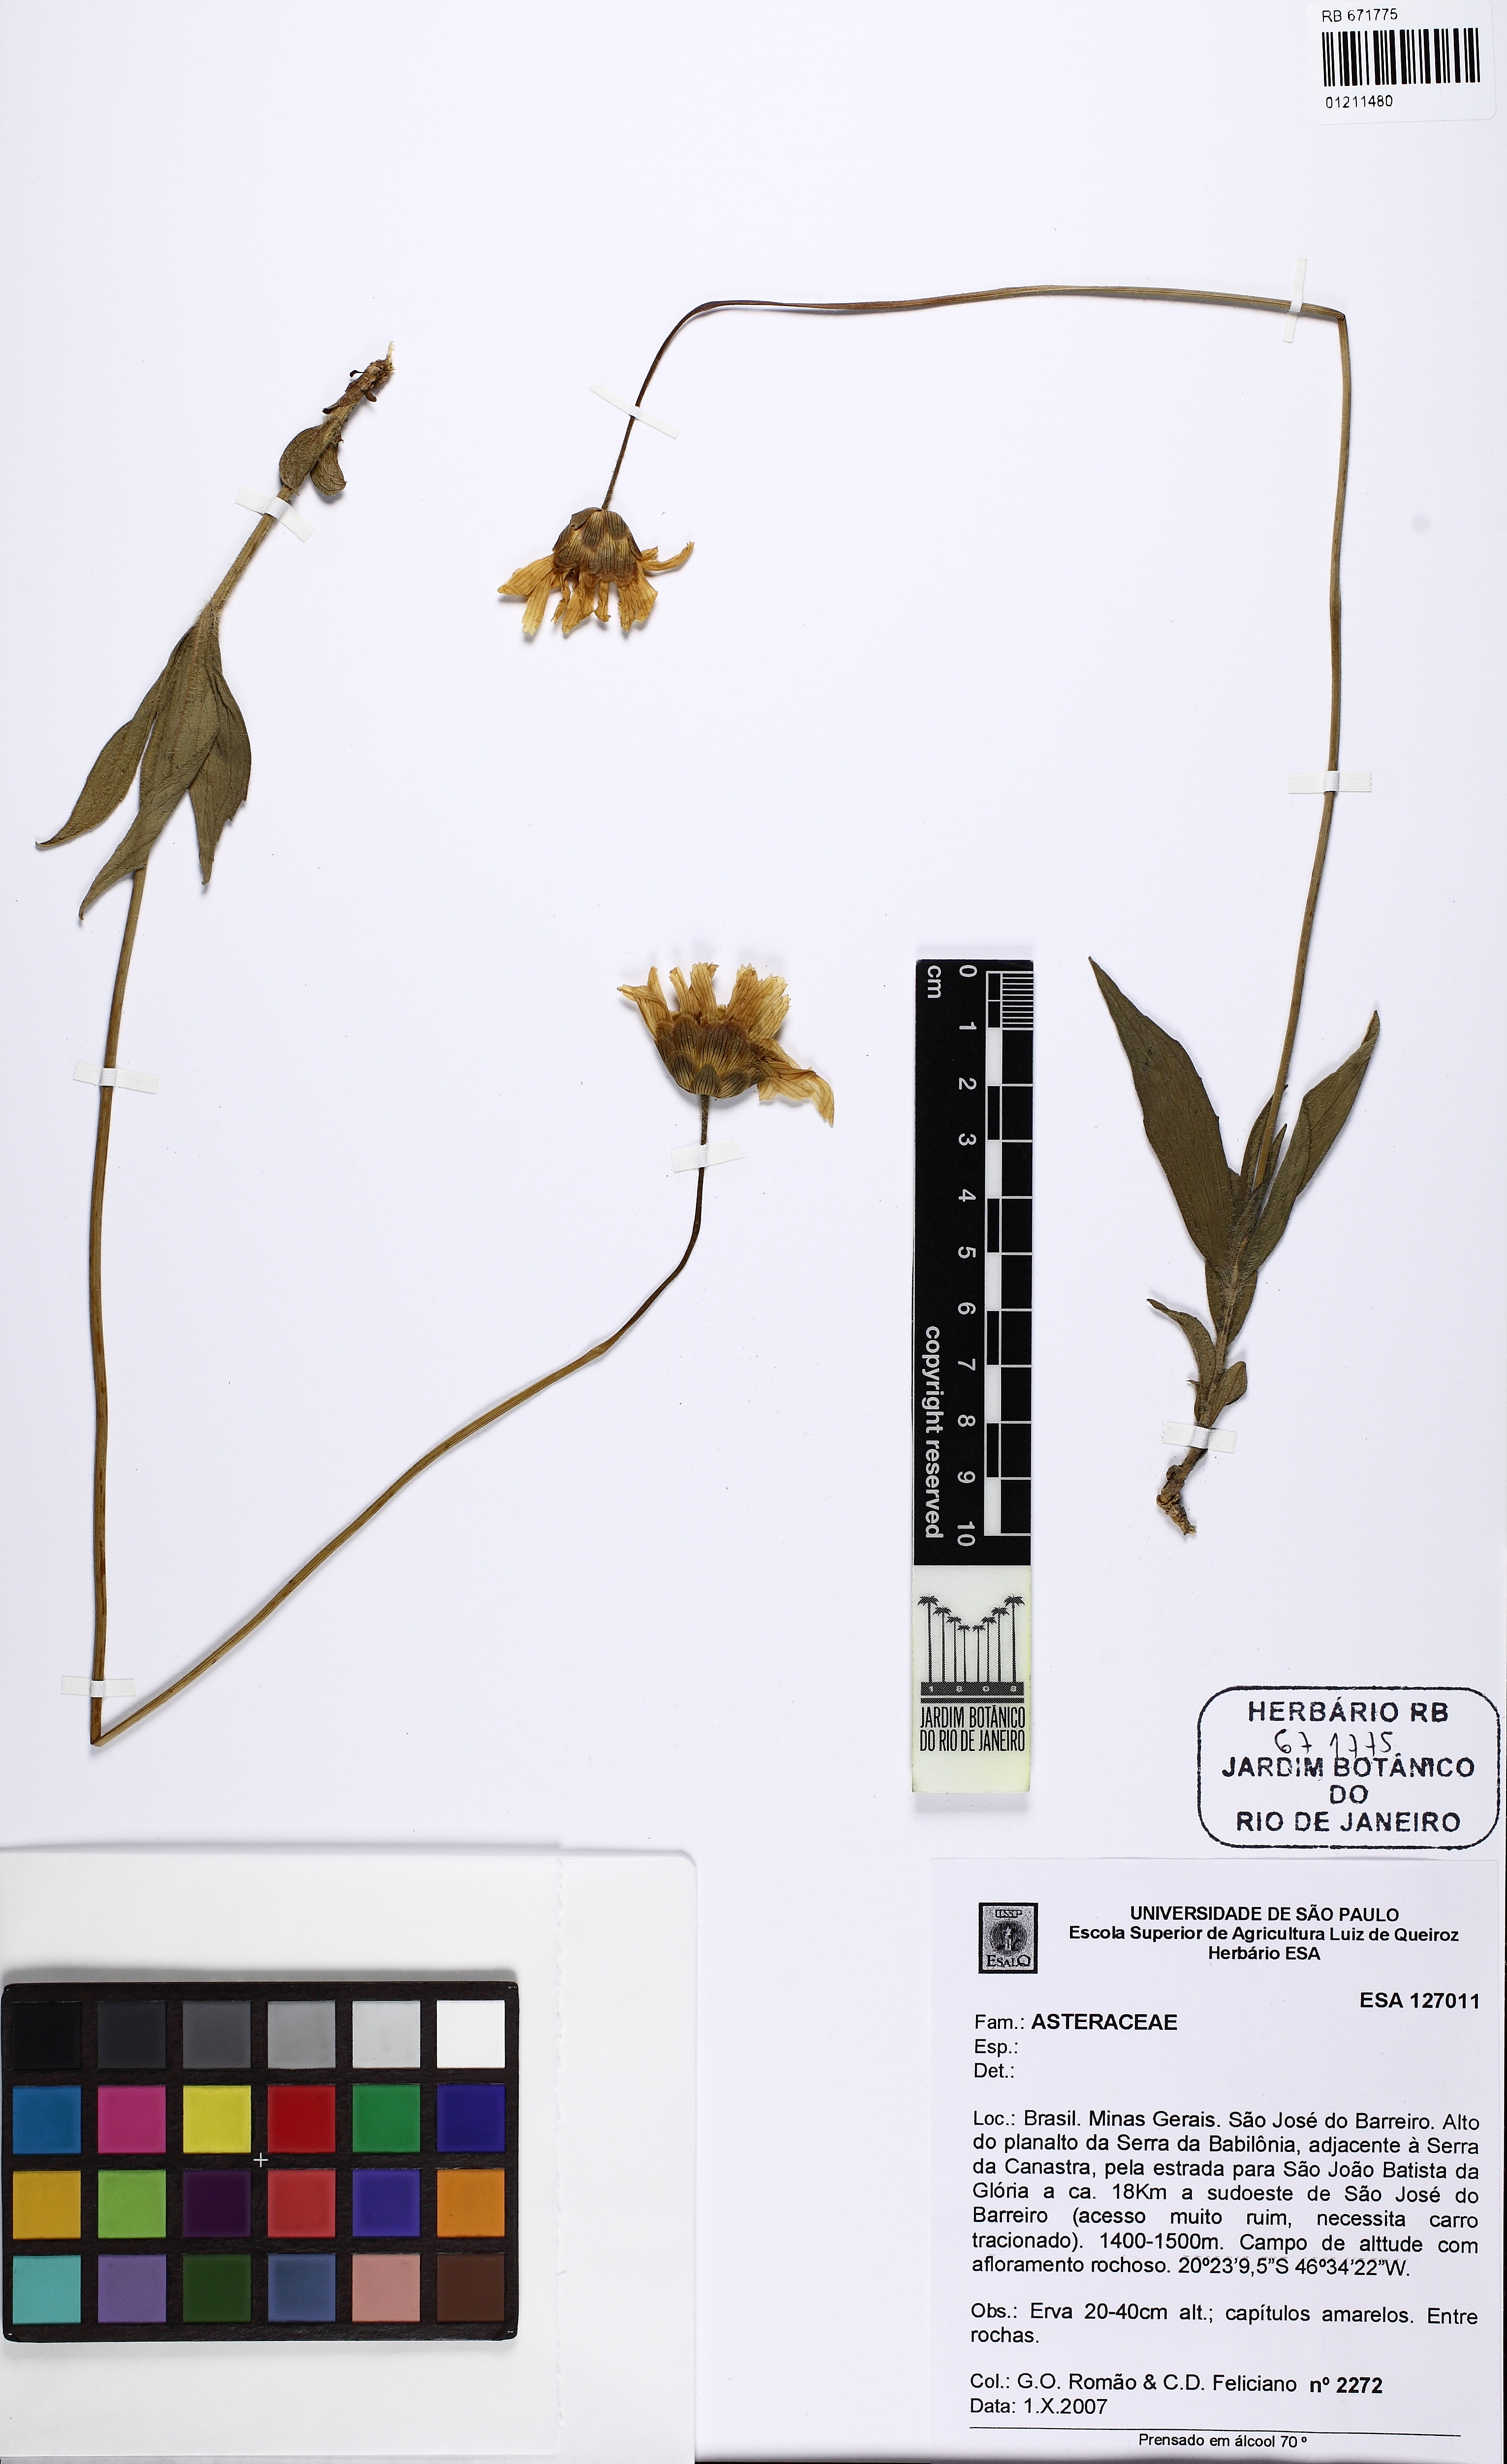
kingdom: Plantae
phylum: Tracheophyta
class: Magnoliopsida
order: Asterales
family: Asteraceae
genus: Calea
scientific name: Calea
